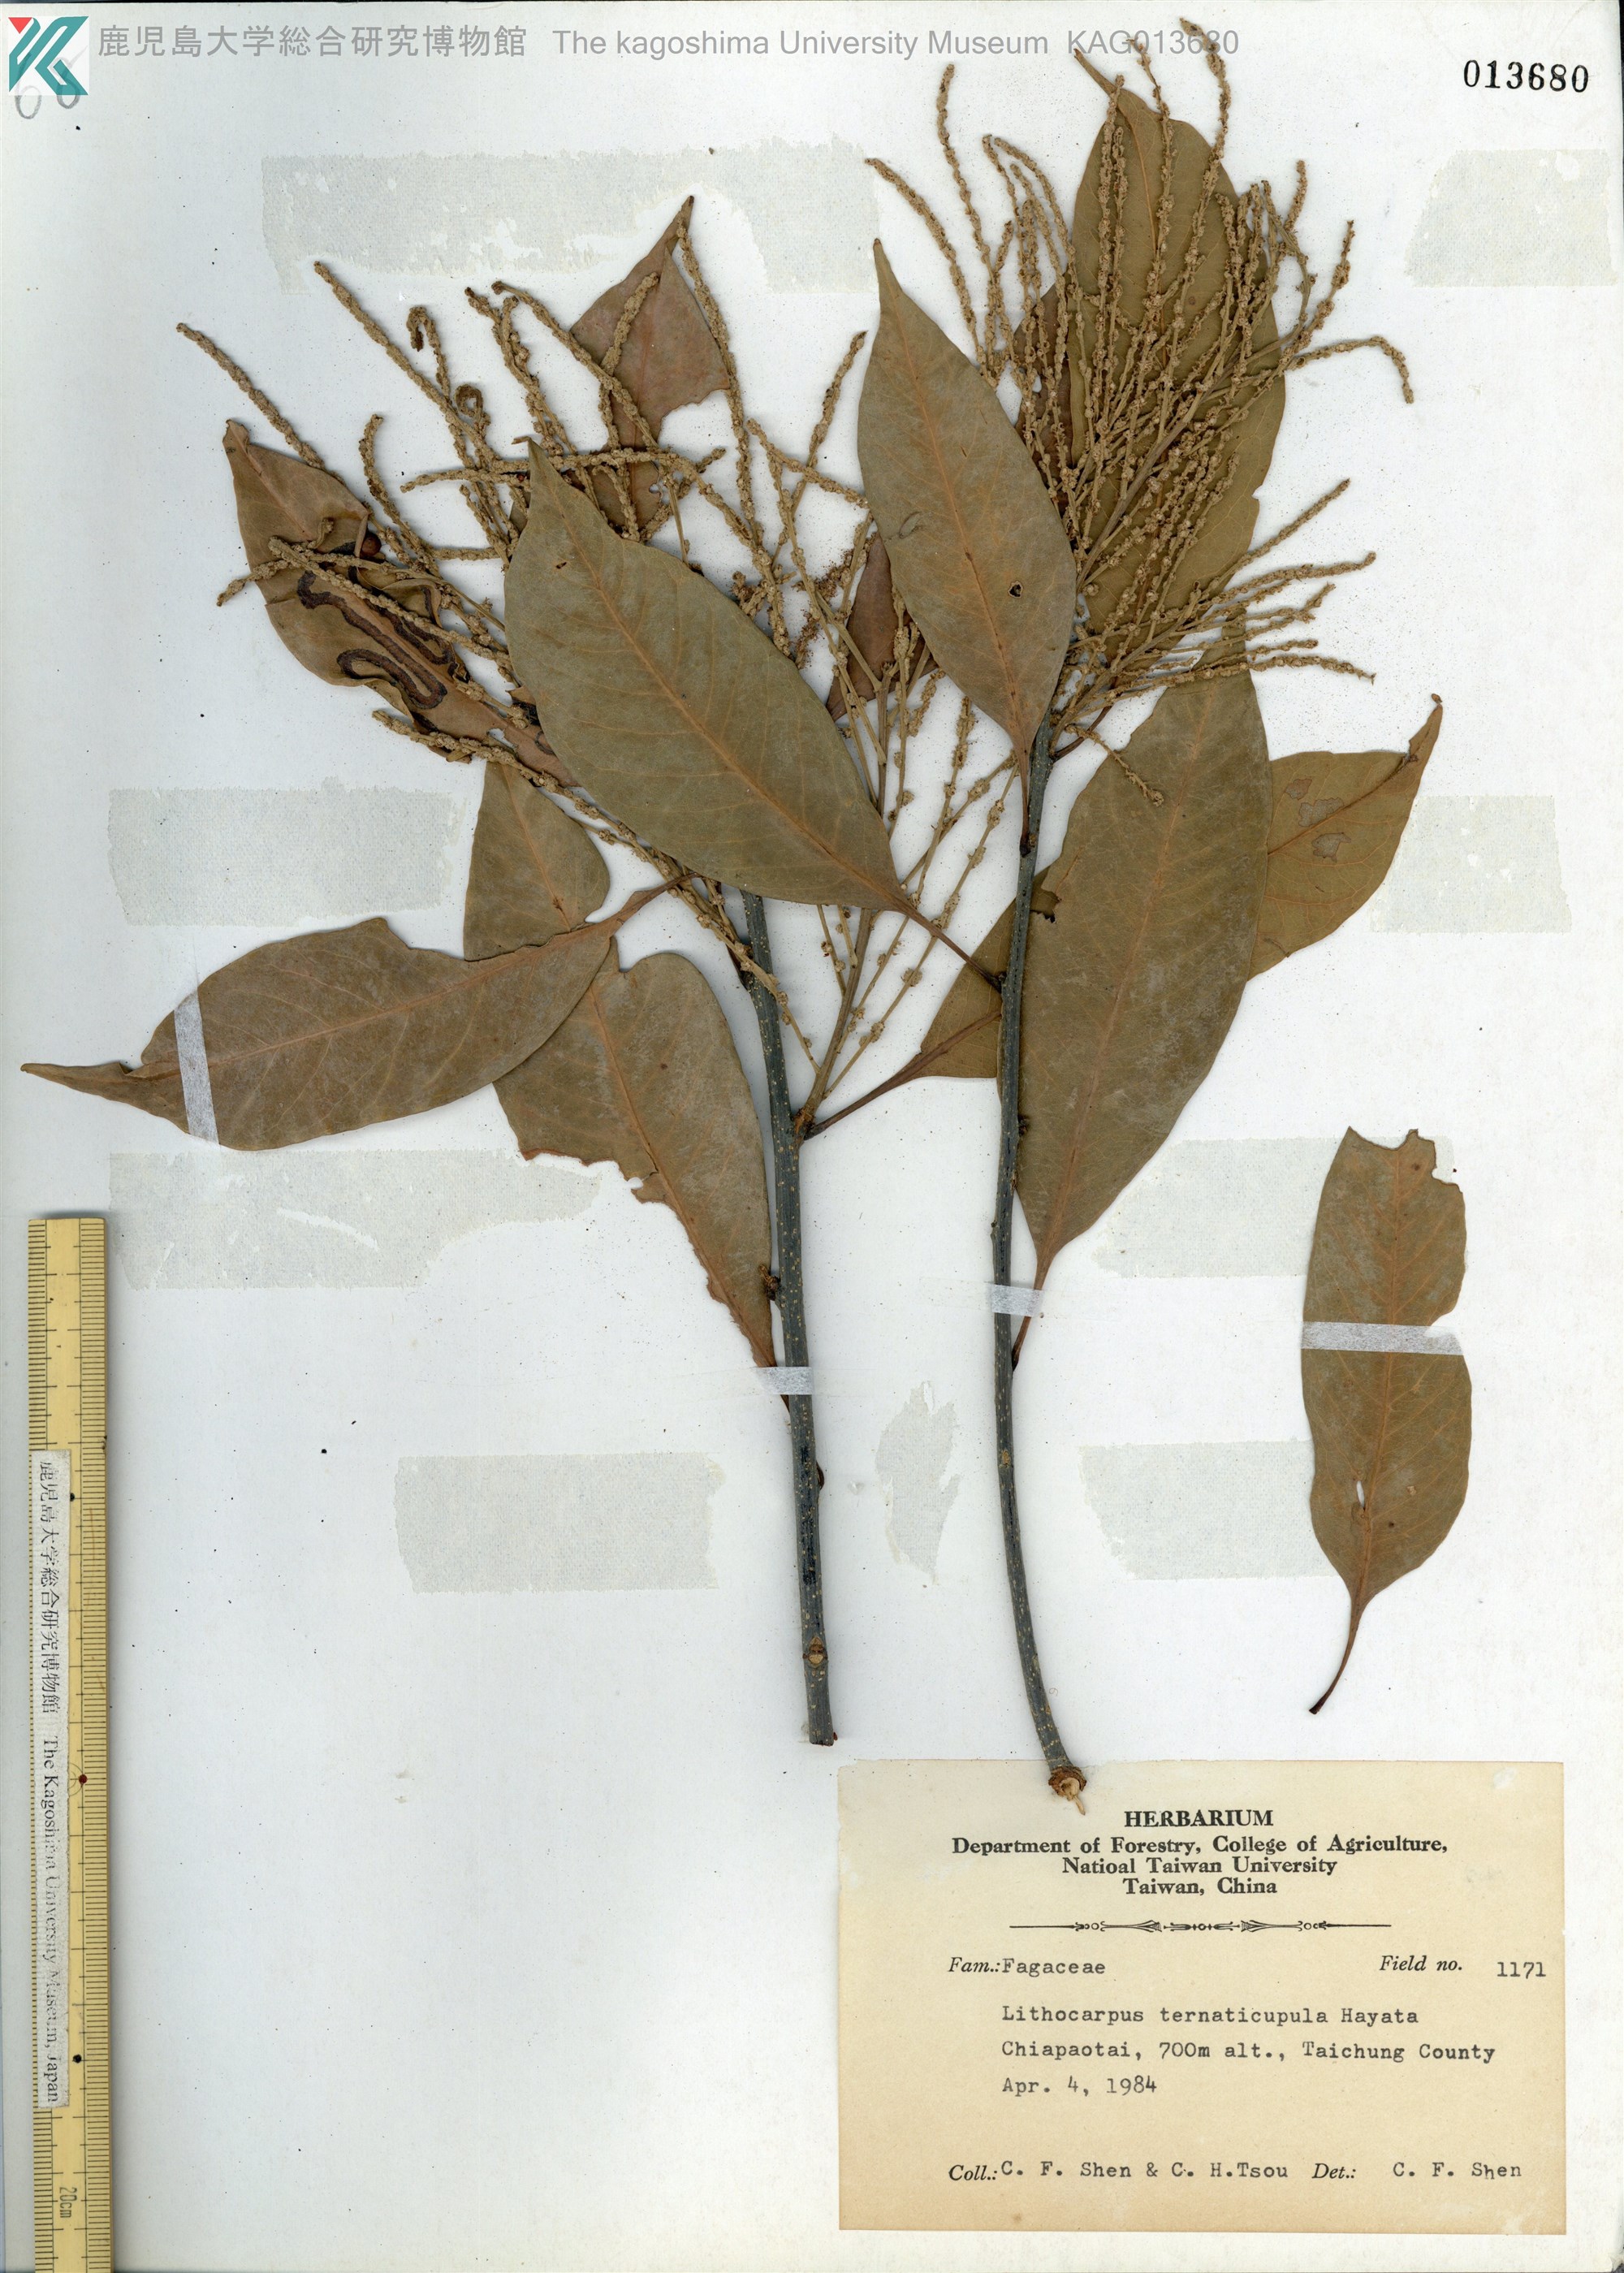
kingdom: Plantae
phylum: Tracheophyta
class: Magnoliopsida
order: Fagales
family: Fagaceae
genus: Lithocarpus
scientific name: Lithocarpus hancei
